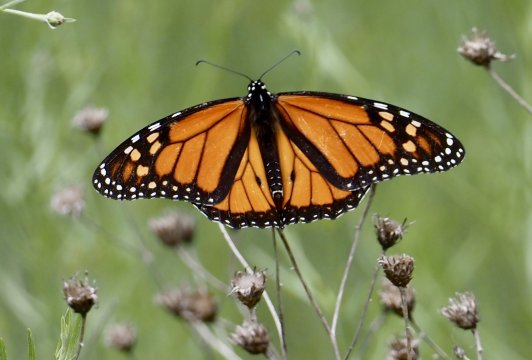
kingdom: Animalia
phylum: Arthropoda
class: Insecta
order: Lepidoptera
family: Nymphalidae
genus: Danaus
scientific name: Danaus plexippus
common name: Monarch
